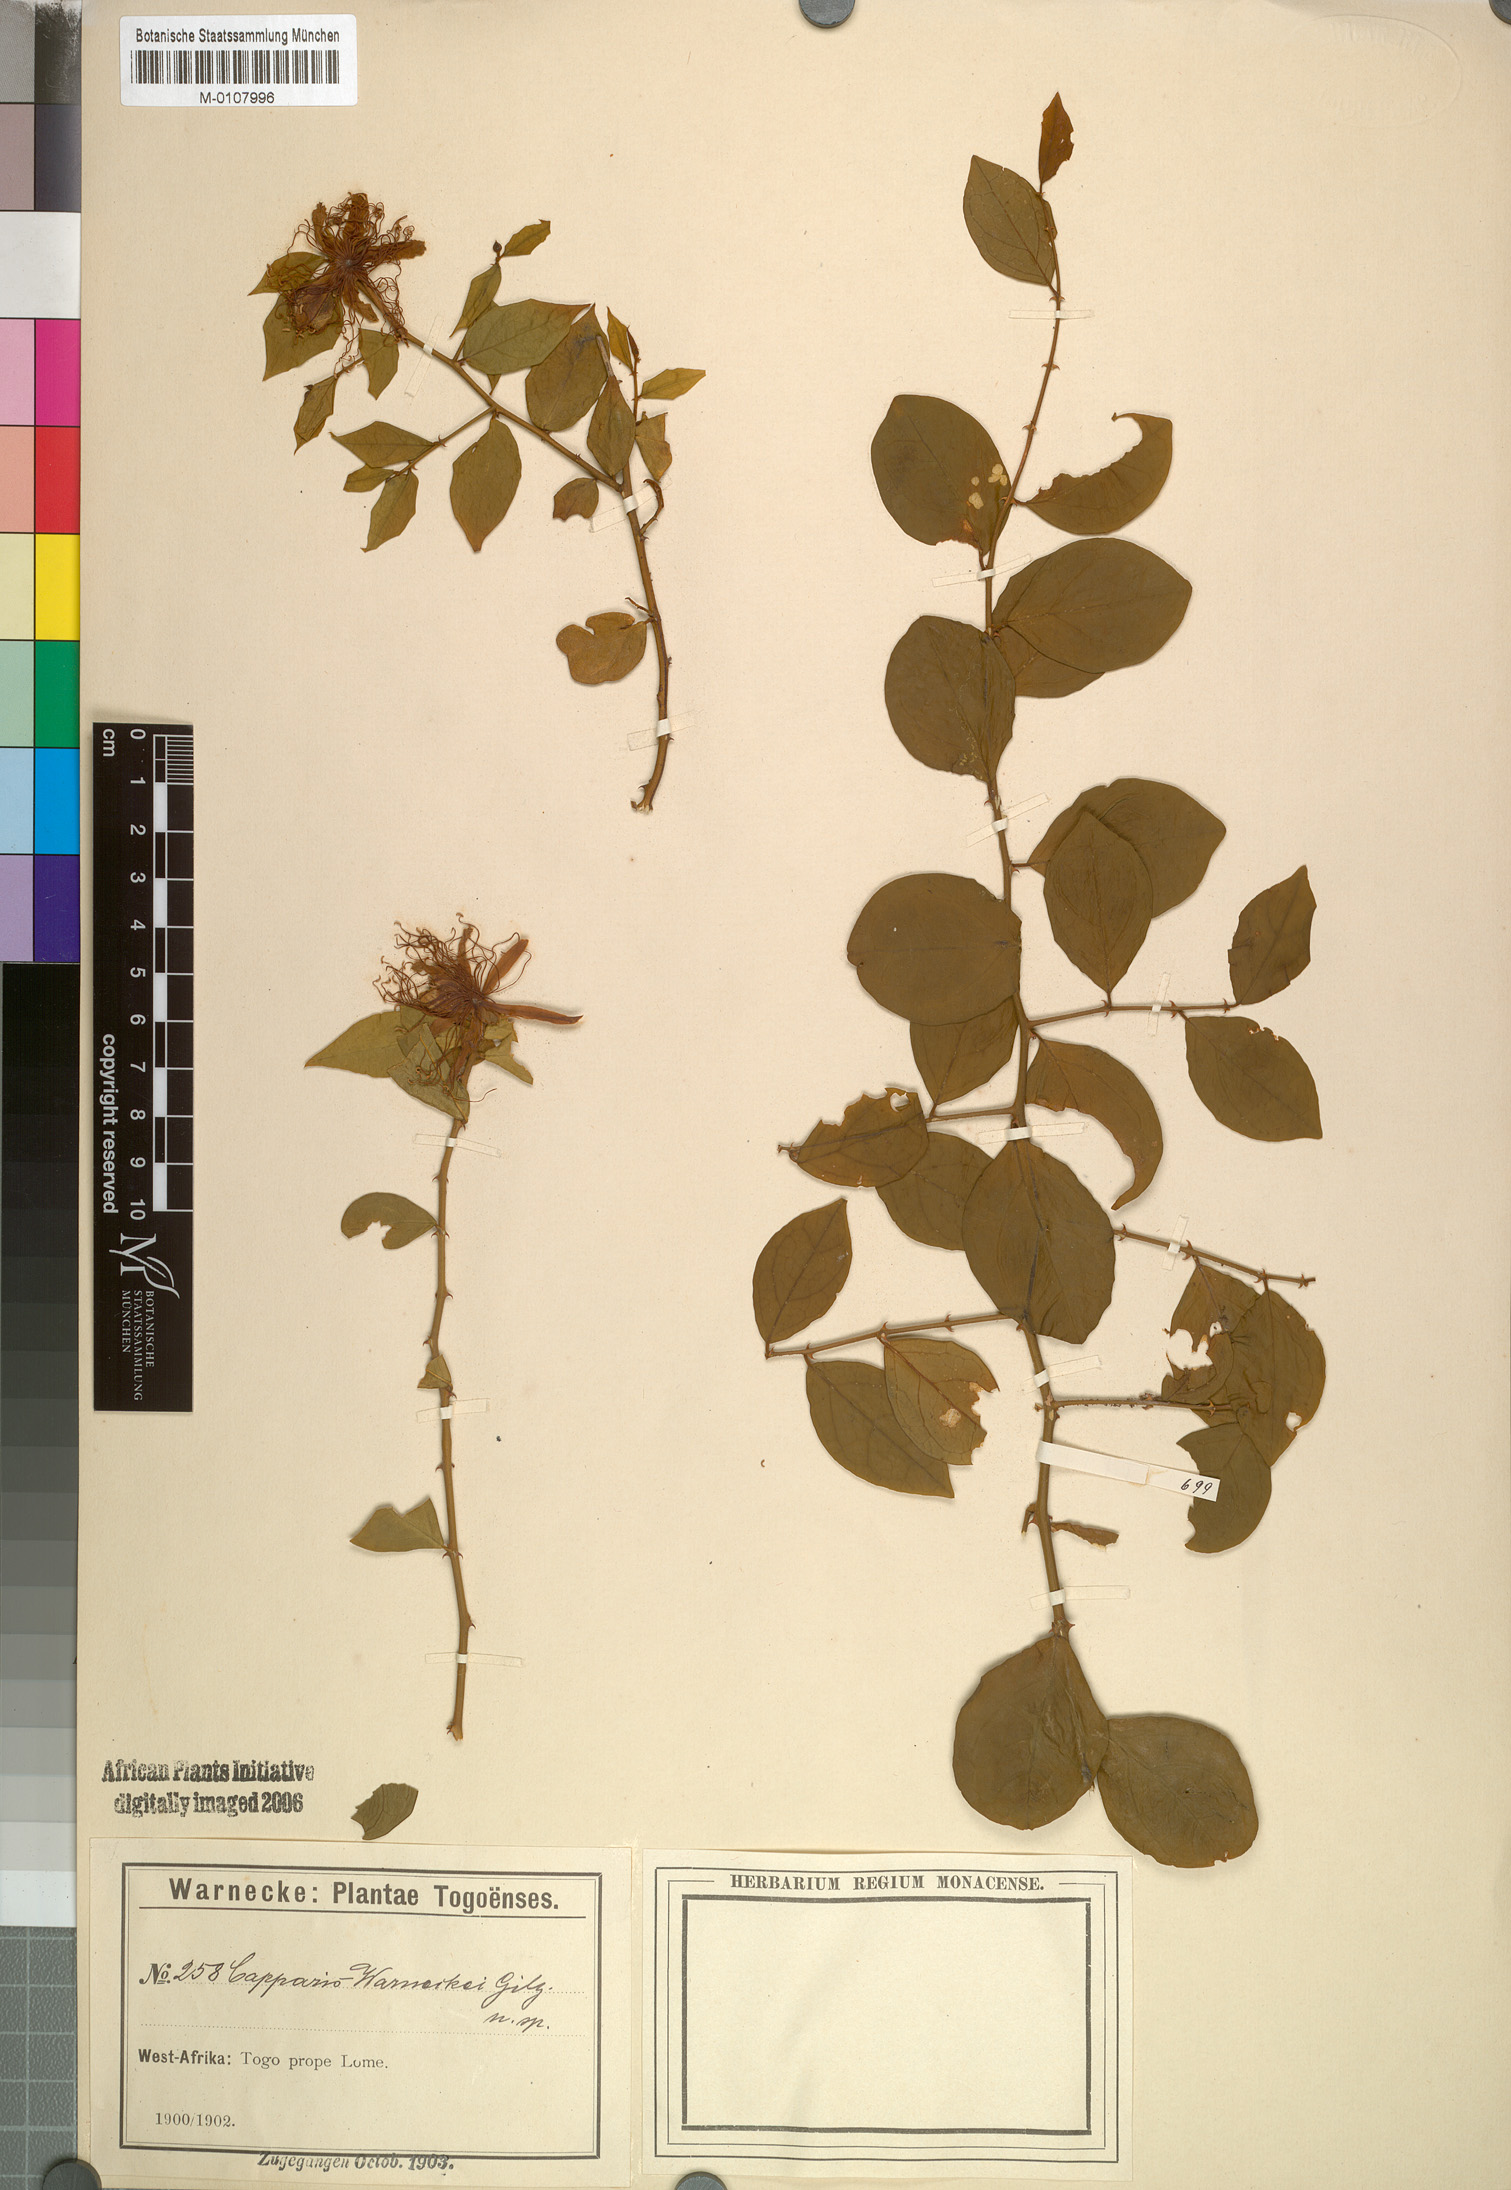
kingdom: Plantae
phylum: Tracheophyta
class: Magnoliopsida
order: Brassicales
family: Capparaceae
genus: Capparis
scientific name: Capparis erythrocarpos
